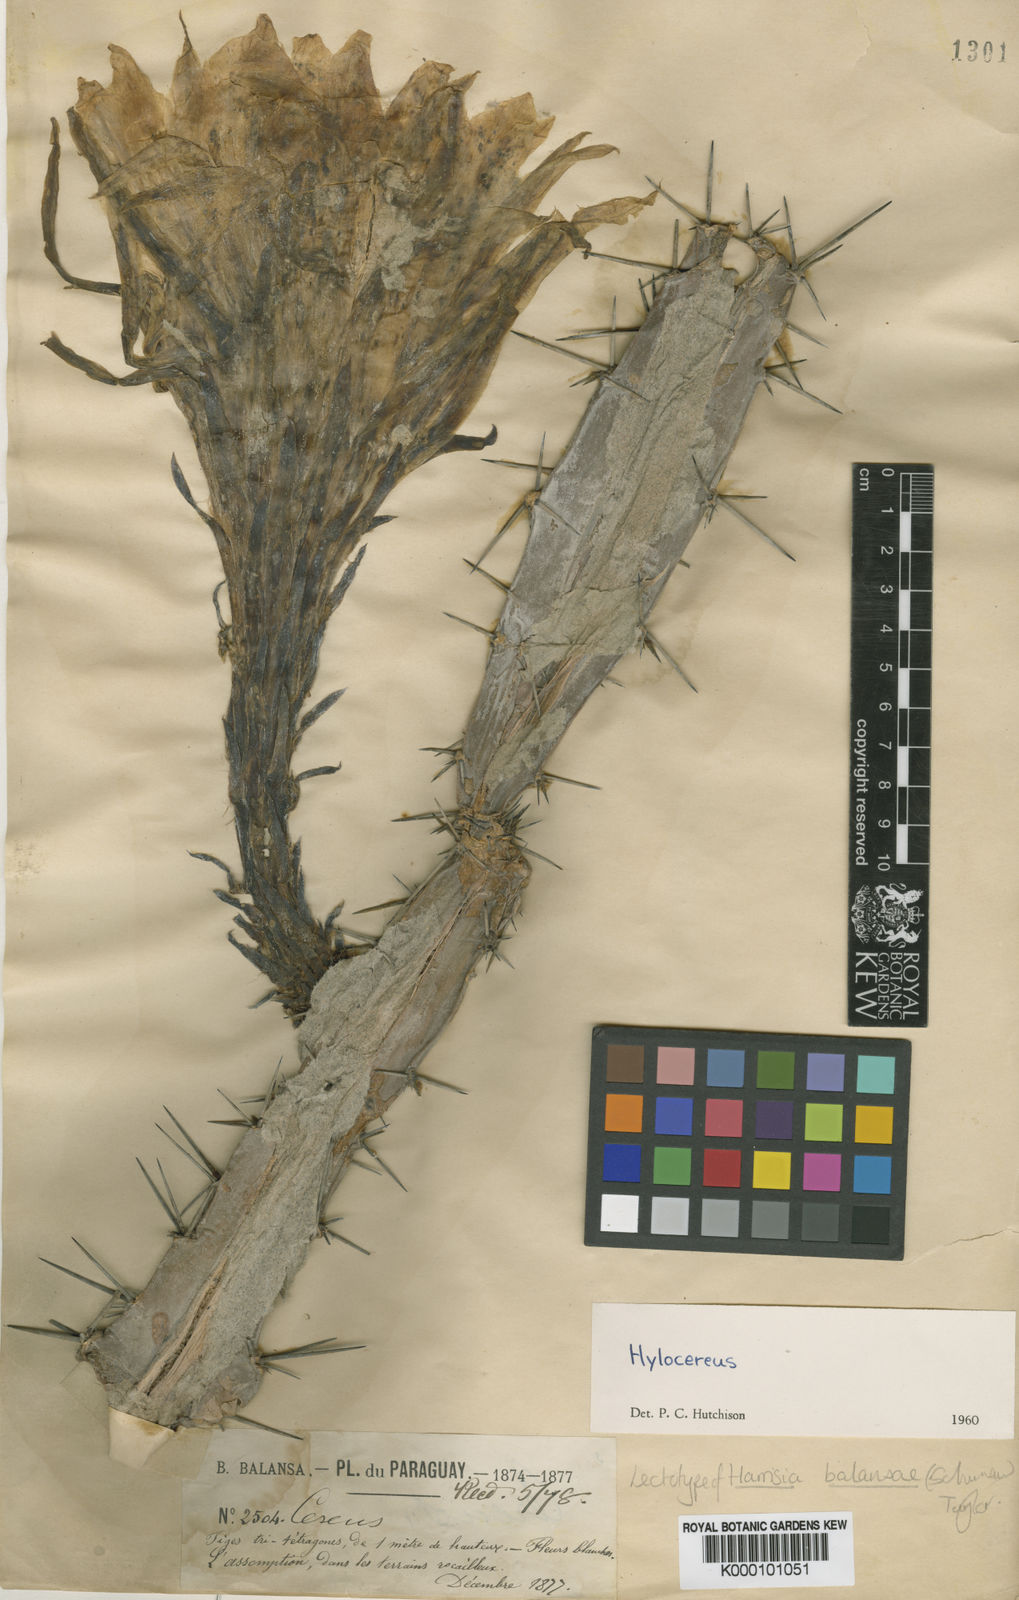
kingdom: Plantae
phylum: Tracheophyta
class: Magnoliopsida
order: Caryophyllales
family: Cactaceae
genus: Harrisia
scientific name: Harrisia bonplandii
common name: Queen of the night cactus
